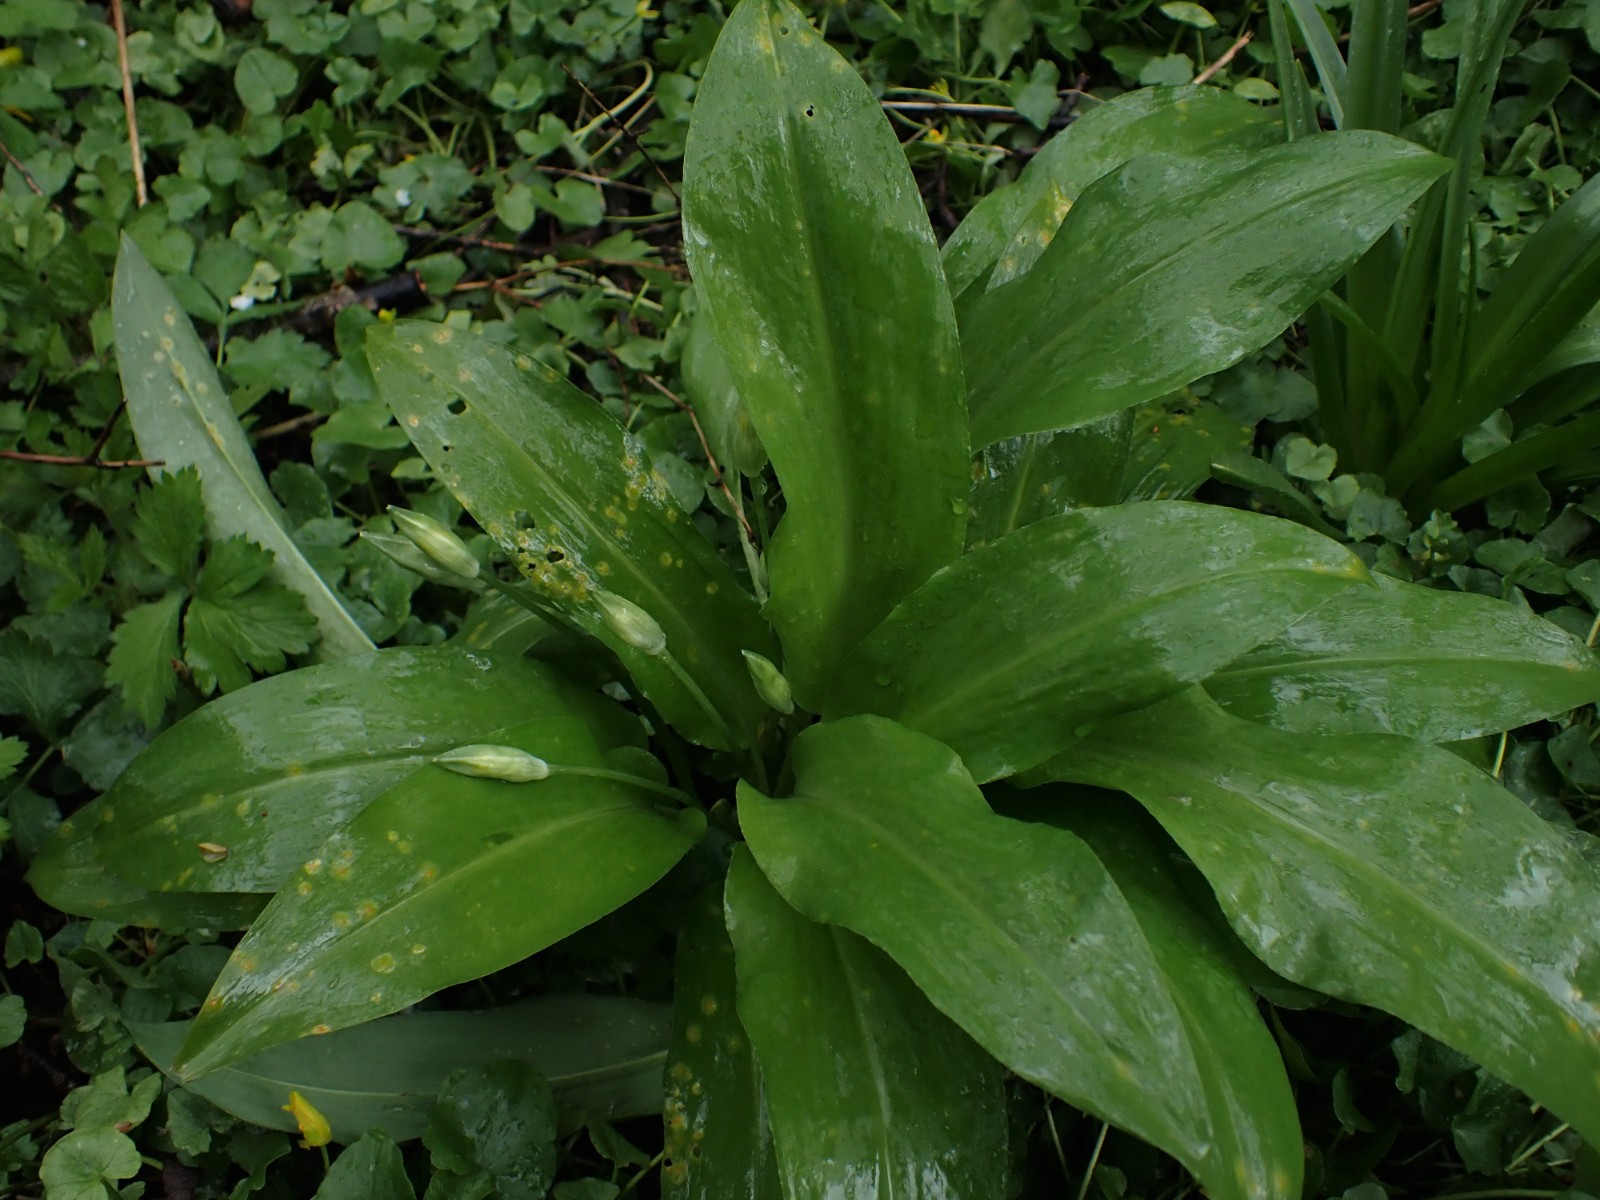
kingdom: Fungi
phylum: Basidiomycota
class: Pucciniomycetes
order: Pucciniales
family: Pucciniaceae
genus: Puccinia
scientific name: Puccinia sessilis
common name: Arum rust
